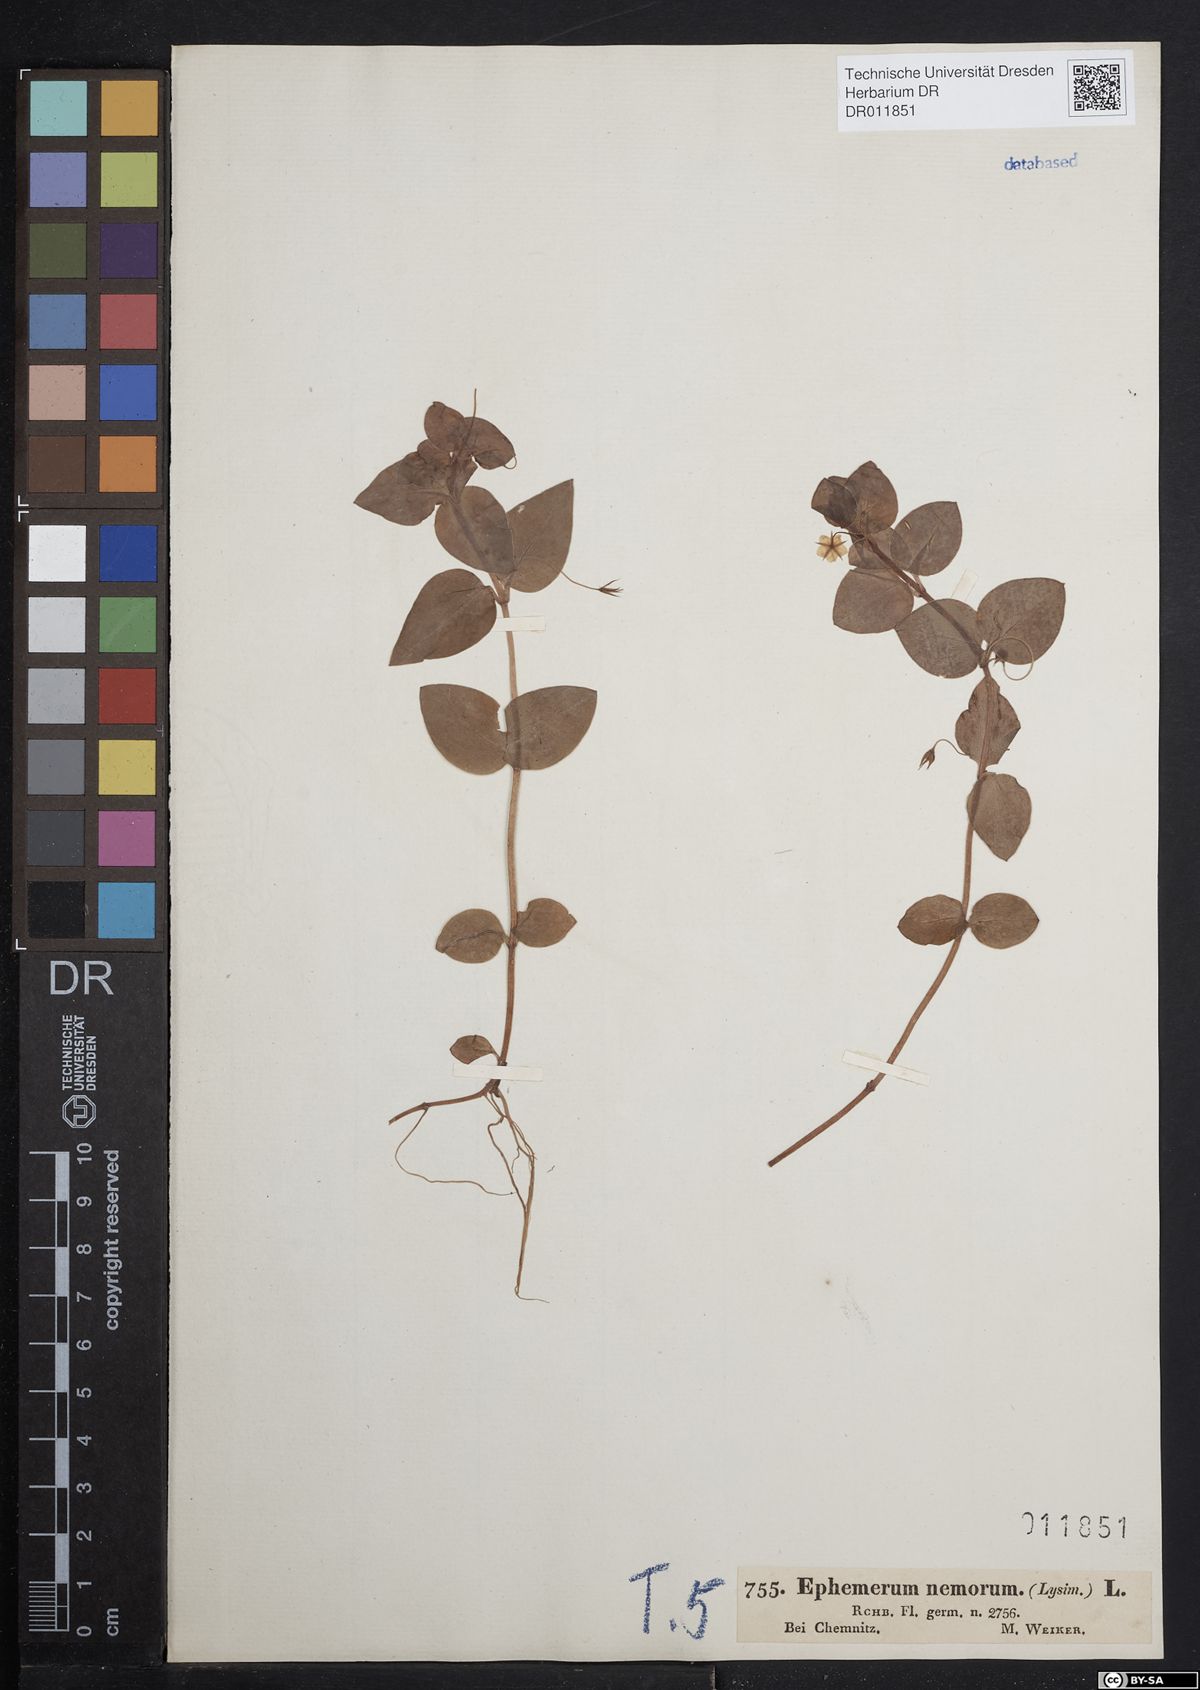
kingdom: Plantae
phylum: Tracheophyta
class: Magnoliopsida
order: Ericales
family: Primulaceae
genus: Lysimachia
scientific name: Lysimachia nemorum
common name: Yellow pimpernel
